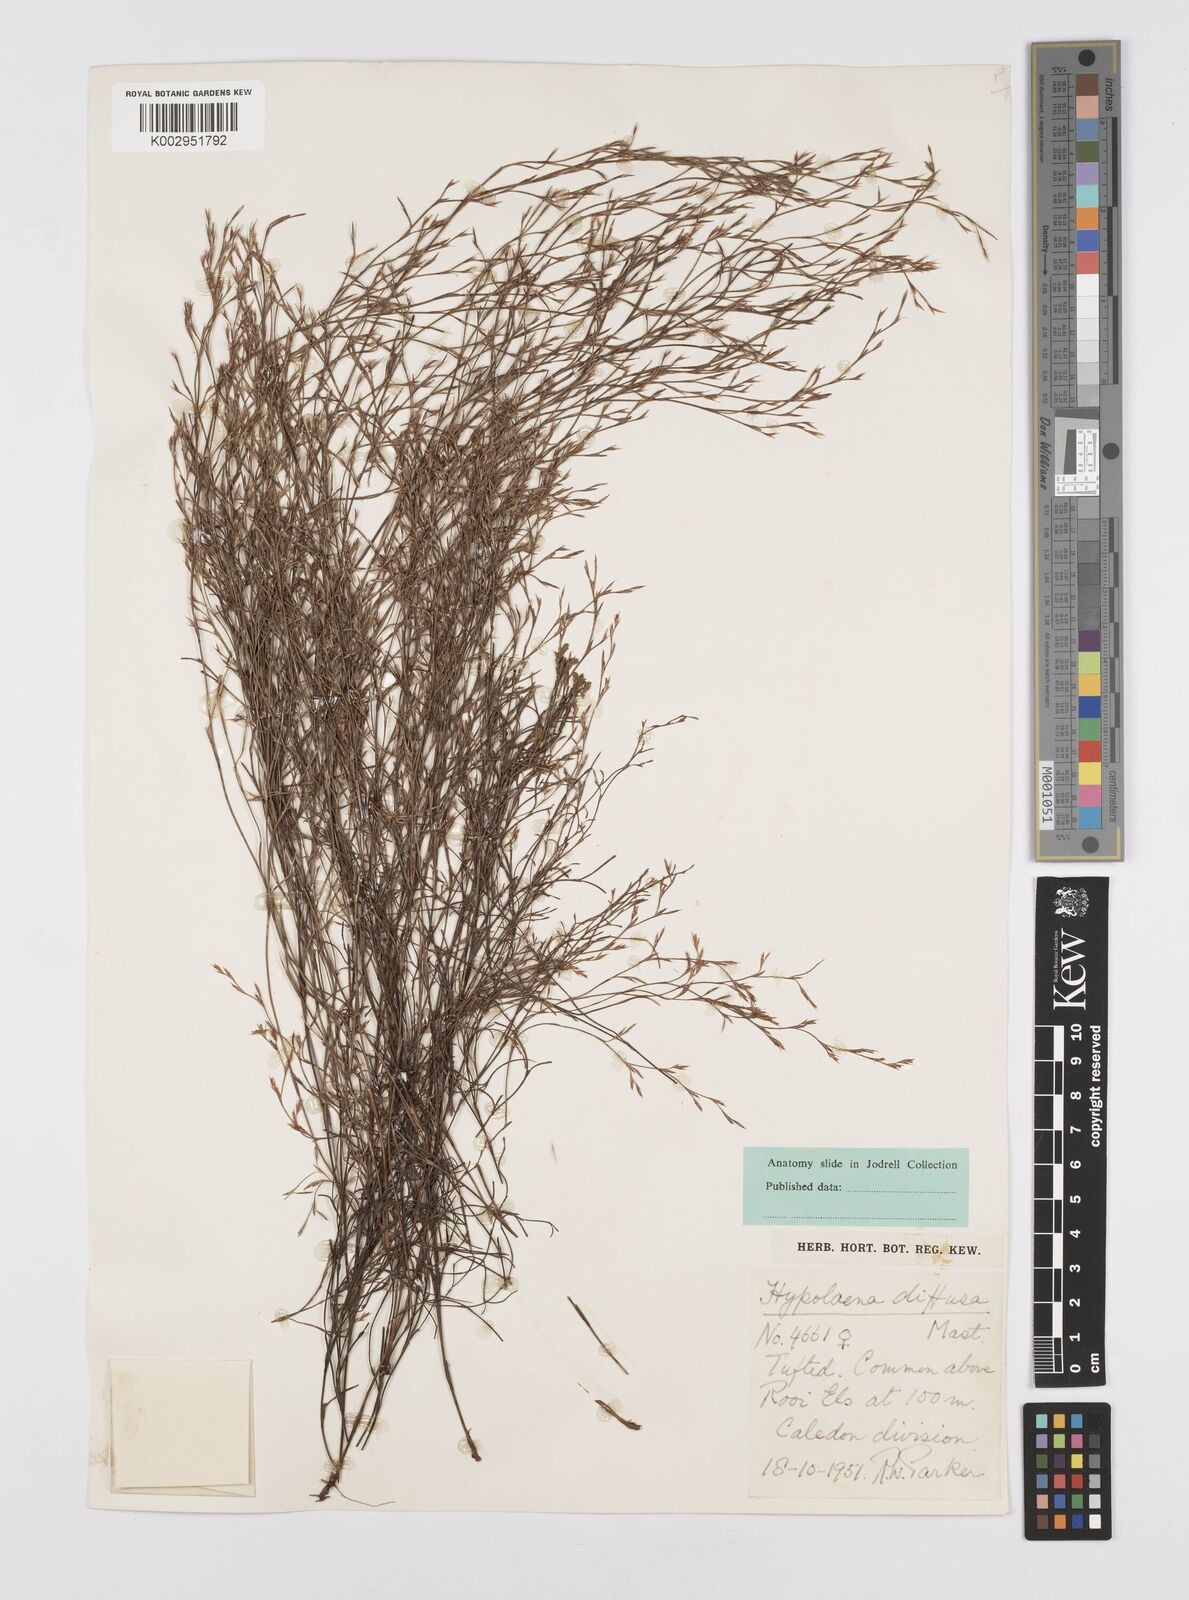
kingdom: Plantae
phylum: Tracheophyta
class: Liliopsida
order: Poales
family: Restionaceae
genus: Restio
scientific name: Restio versatilis
